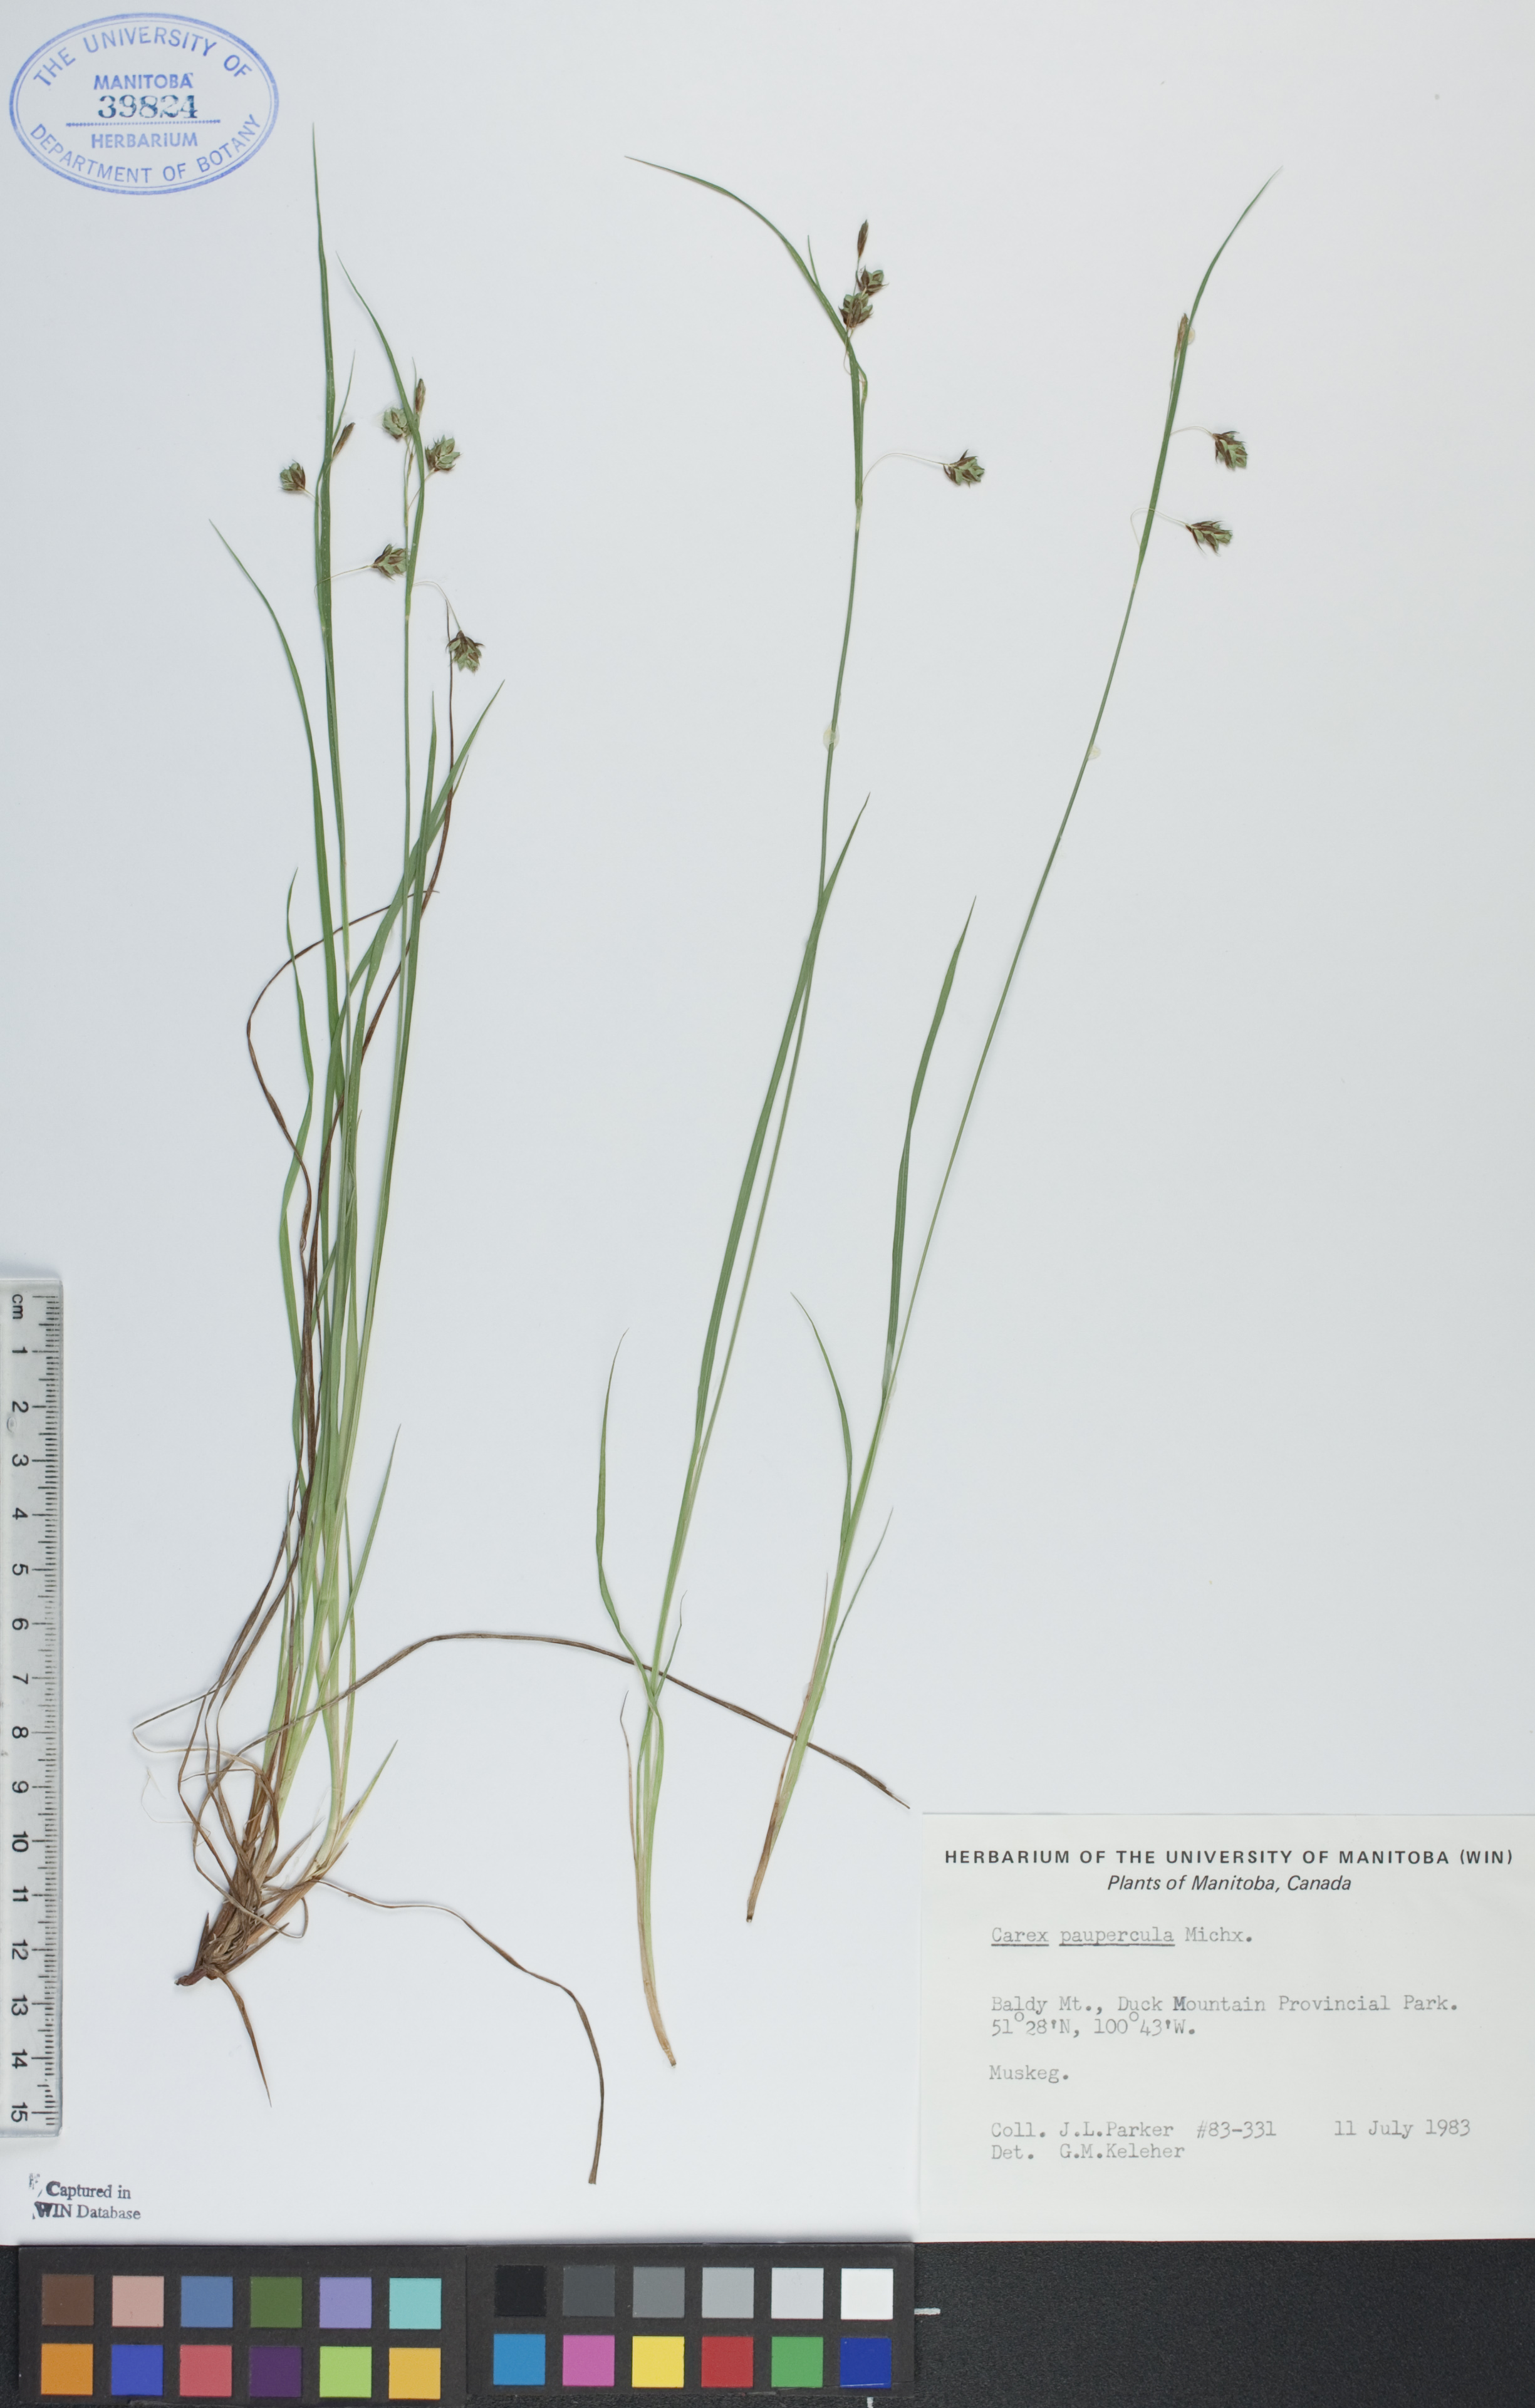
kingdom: Plantae
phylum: Tracheophyta
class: Liliopsida
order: Poales
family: Cyperaceae
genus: Carex
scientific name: Carex magellanica
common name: Bog sedge
